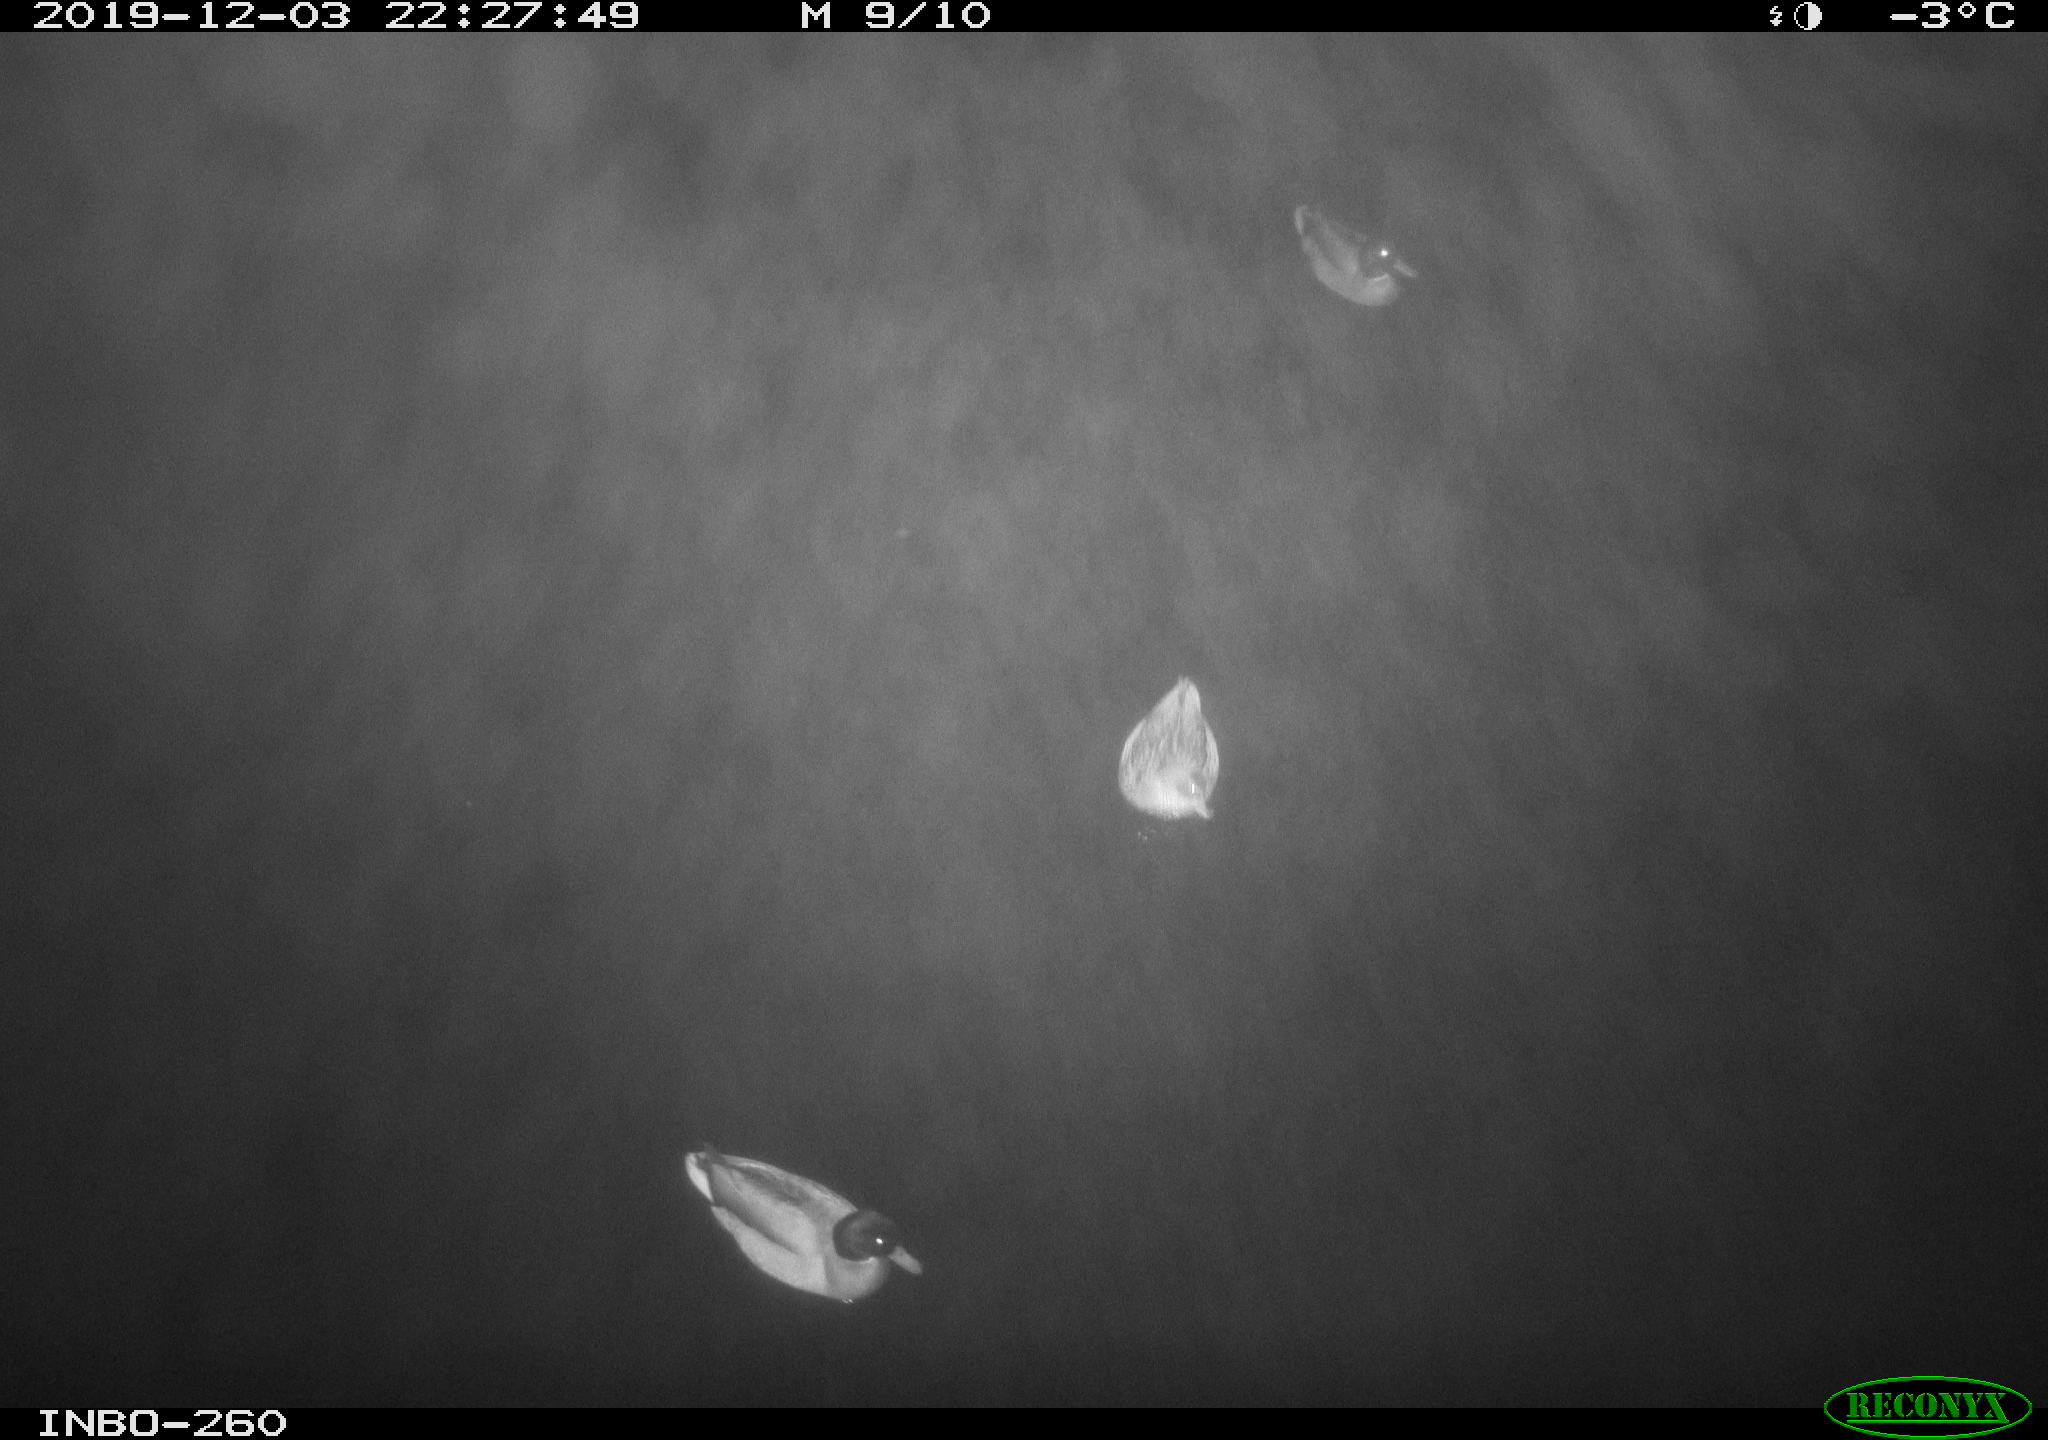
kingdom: Animalia
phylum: Chordata
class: Aves
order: Anseriformes
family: Anatidae
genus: Anas
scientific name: Anas platyrhynchos
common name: Mallard
